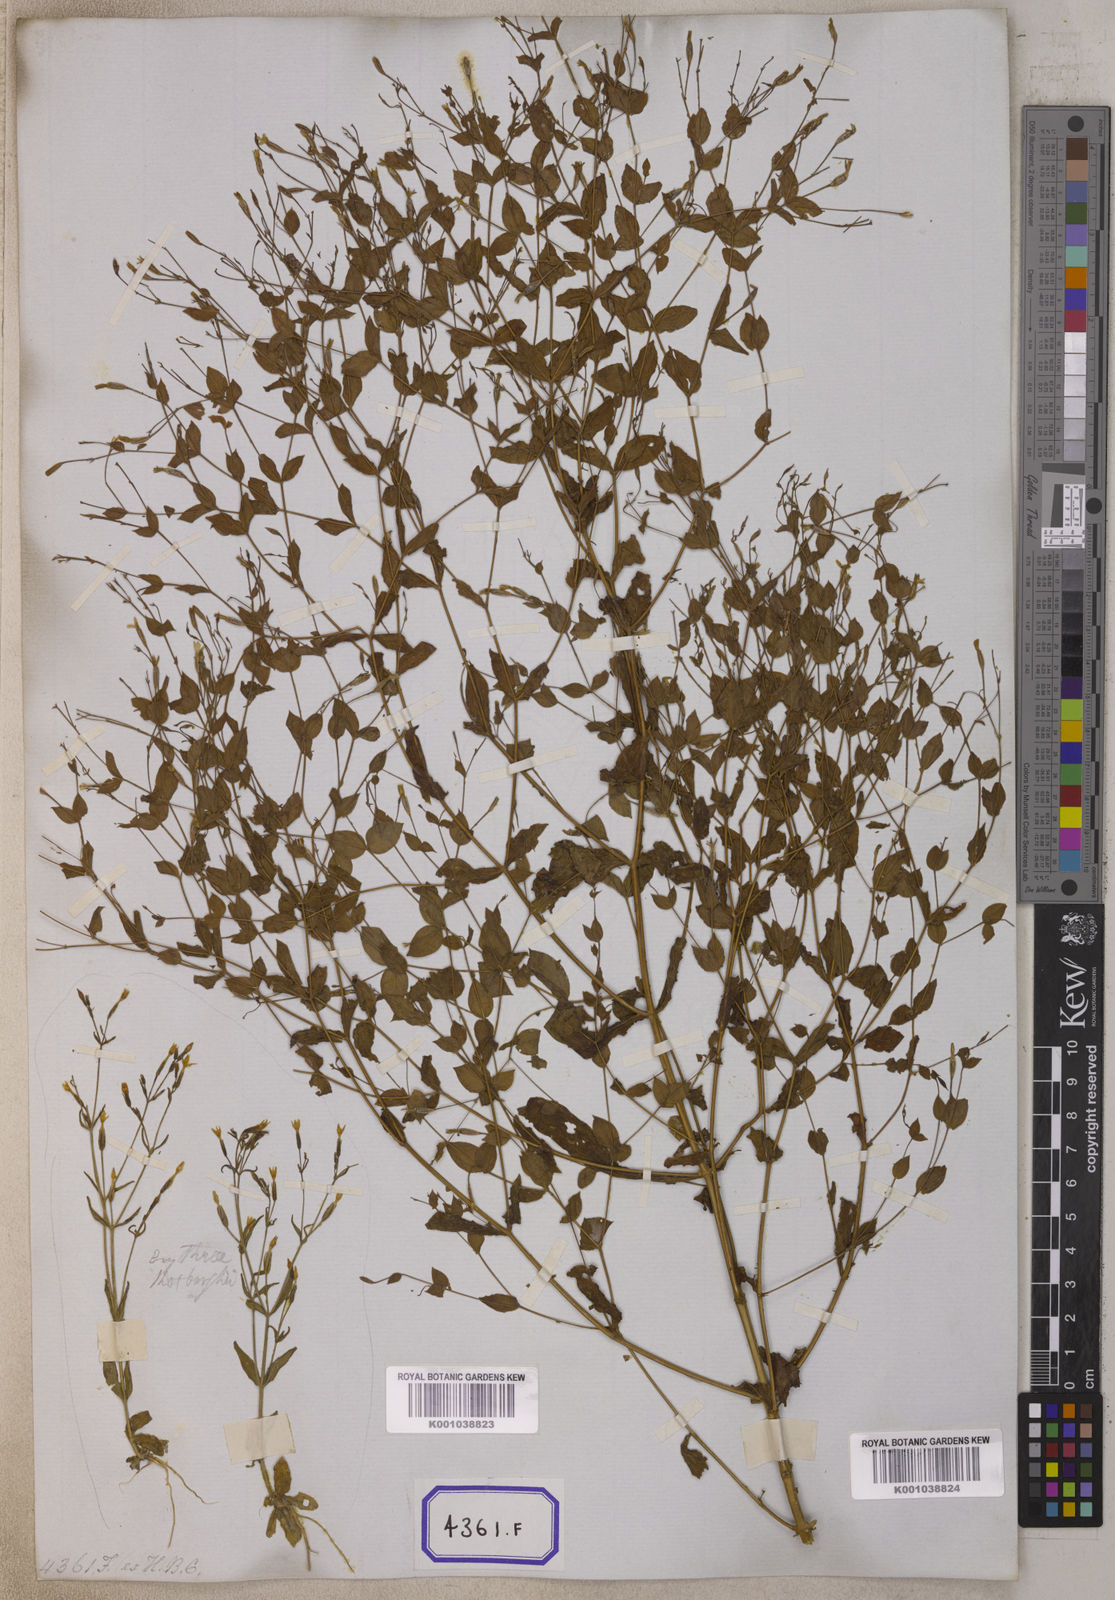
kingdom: Plantae
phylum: Tracheophyta
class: Magnoliopsida
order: Gentianales
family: Gentianaceae
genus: Canscora
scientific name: Canscora
